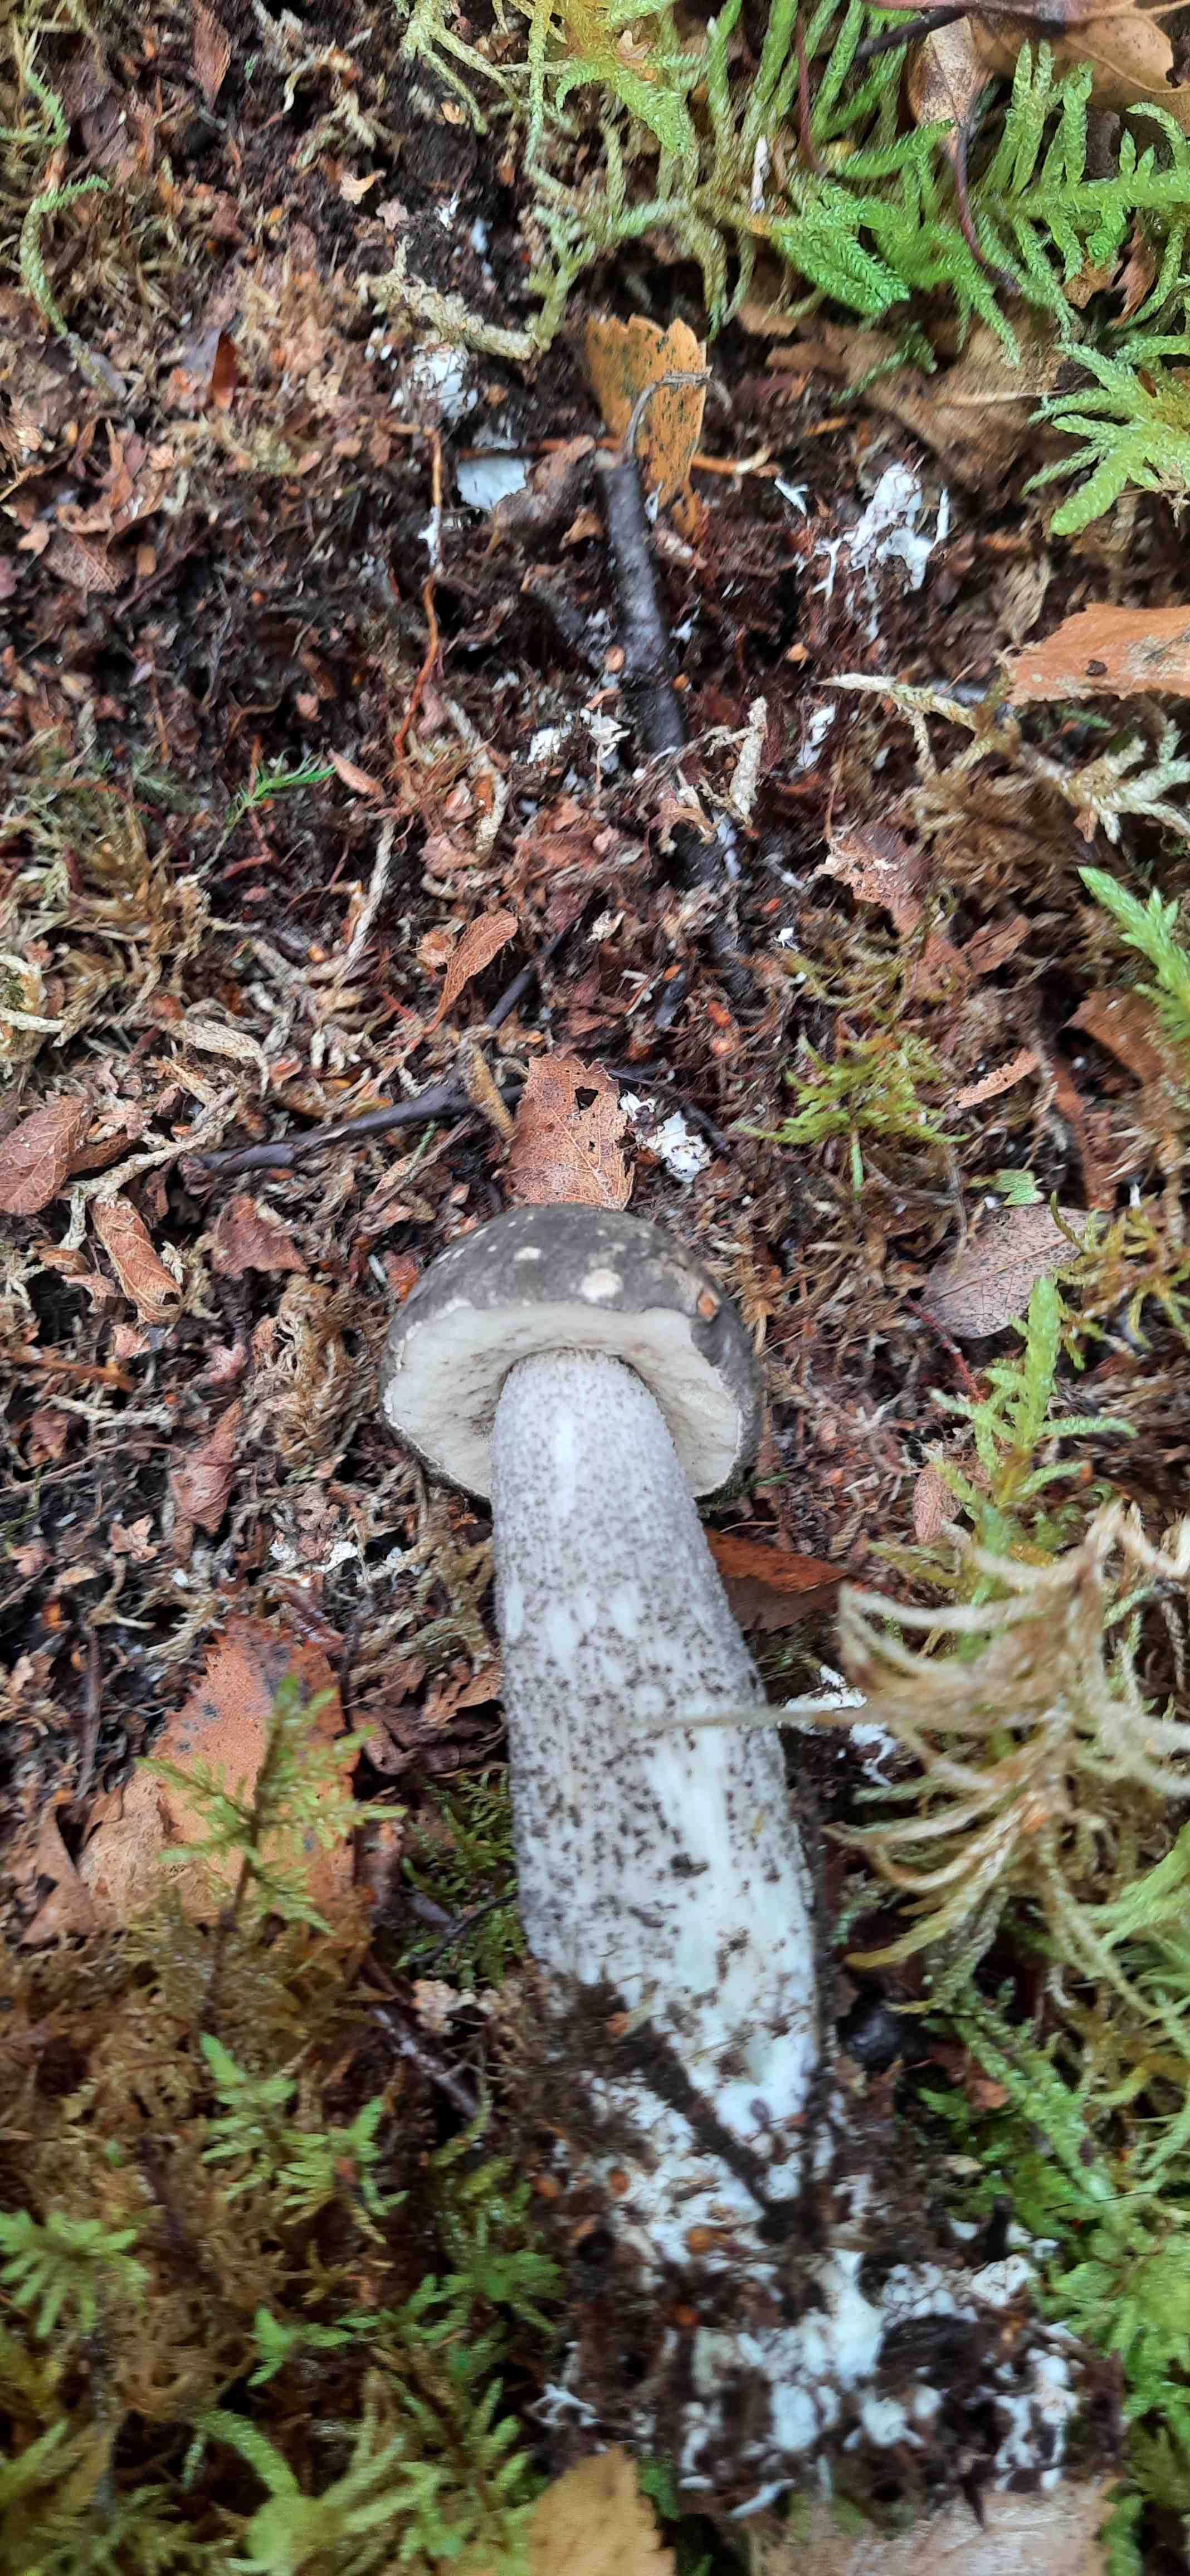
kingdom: Fungi
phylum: Basidiomycota
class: Agaricomycetes
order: Boletales
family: Boletaceae
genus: Leccinum
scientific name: Leccinum variicolor
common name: flammet skælrørhat
